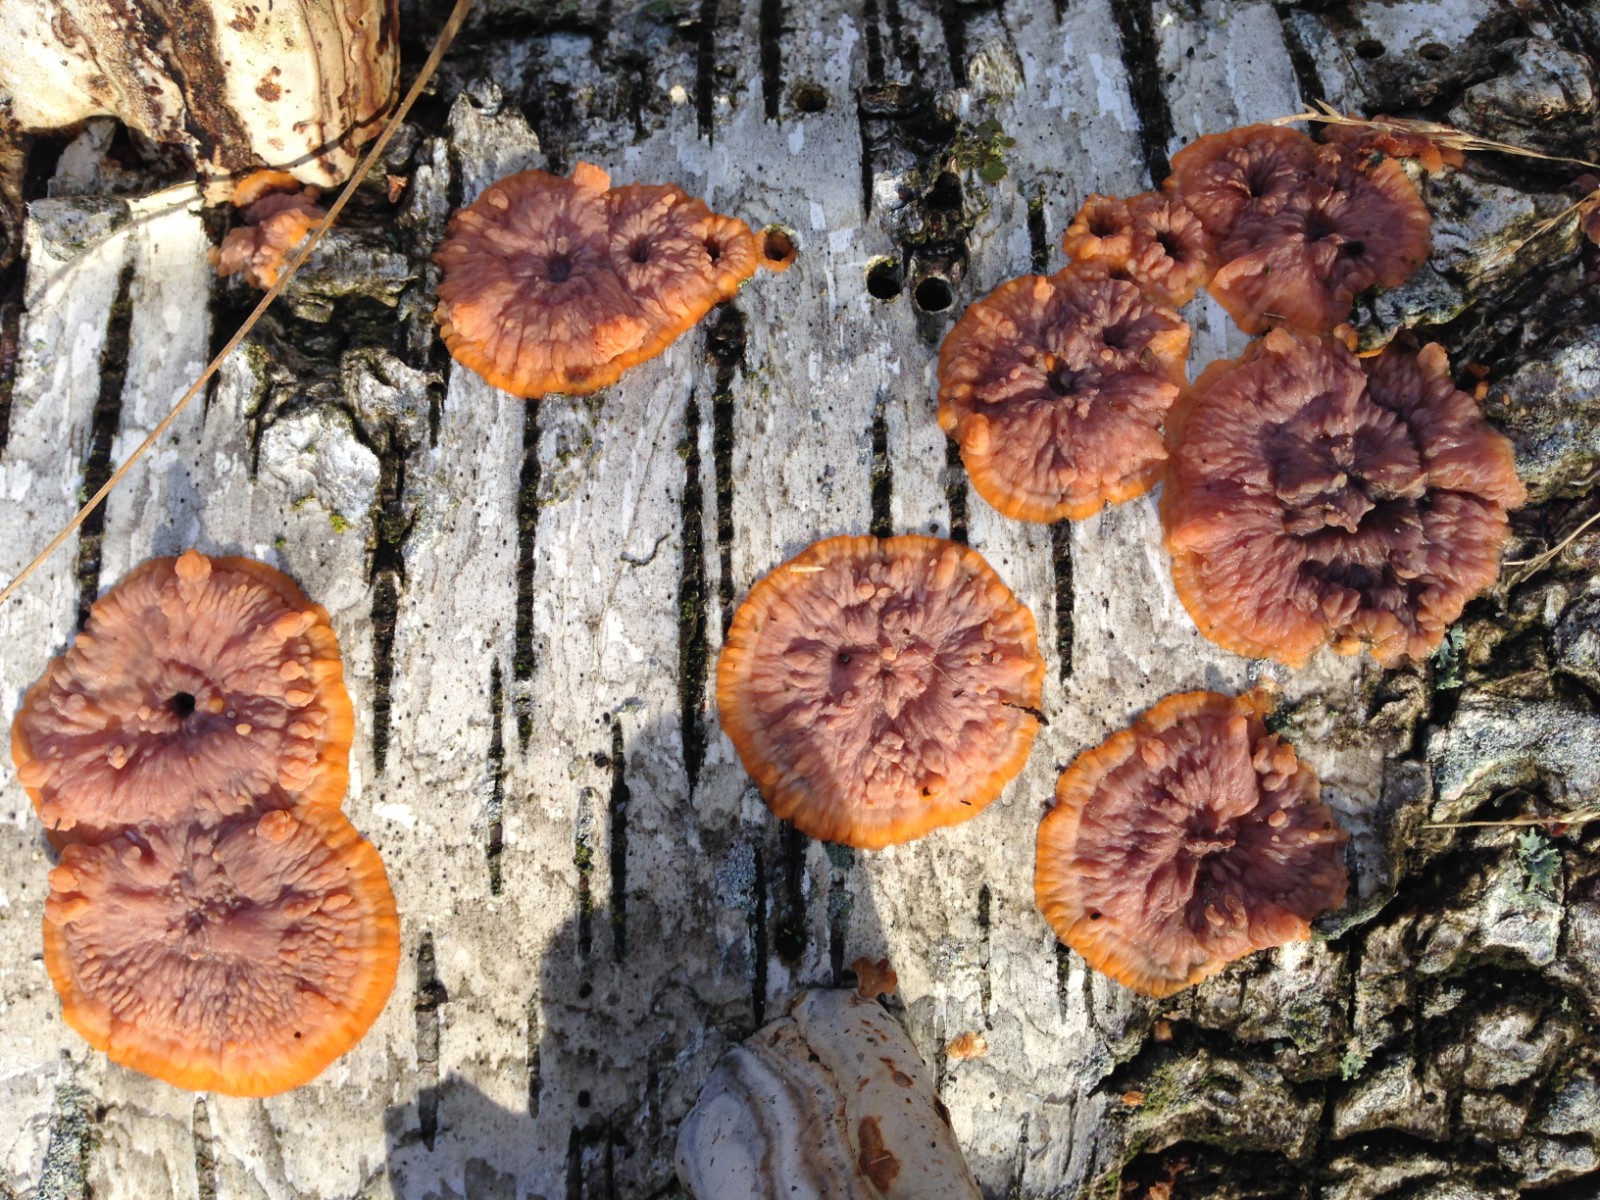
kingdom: Fungi
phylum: Basidiomycota
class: Agaricomycetes
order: Polyporales
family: Meruliaceae
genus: Phlebia
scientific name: Phlebia radiata
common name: stråle-åresvamp
